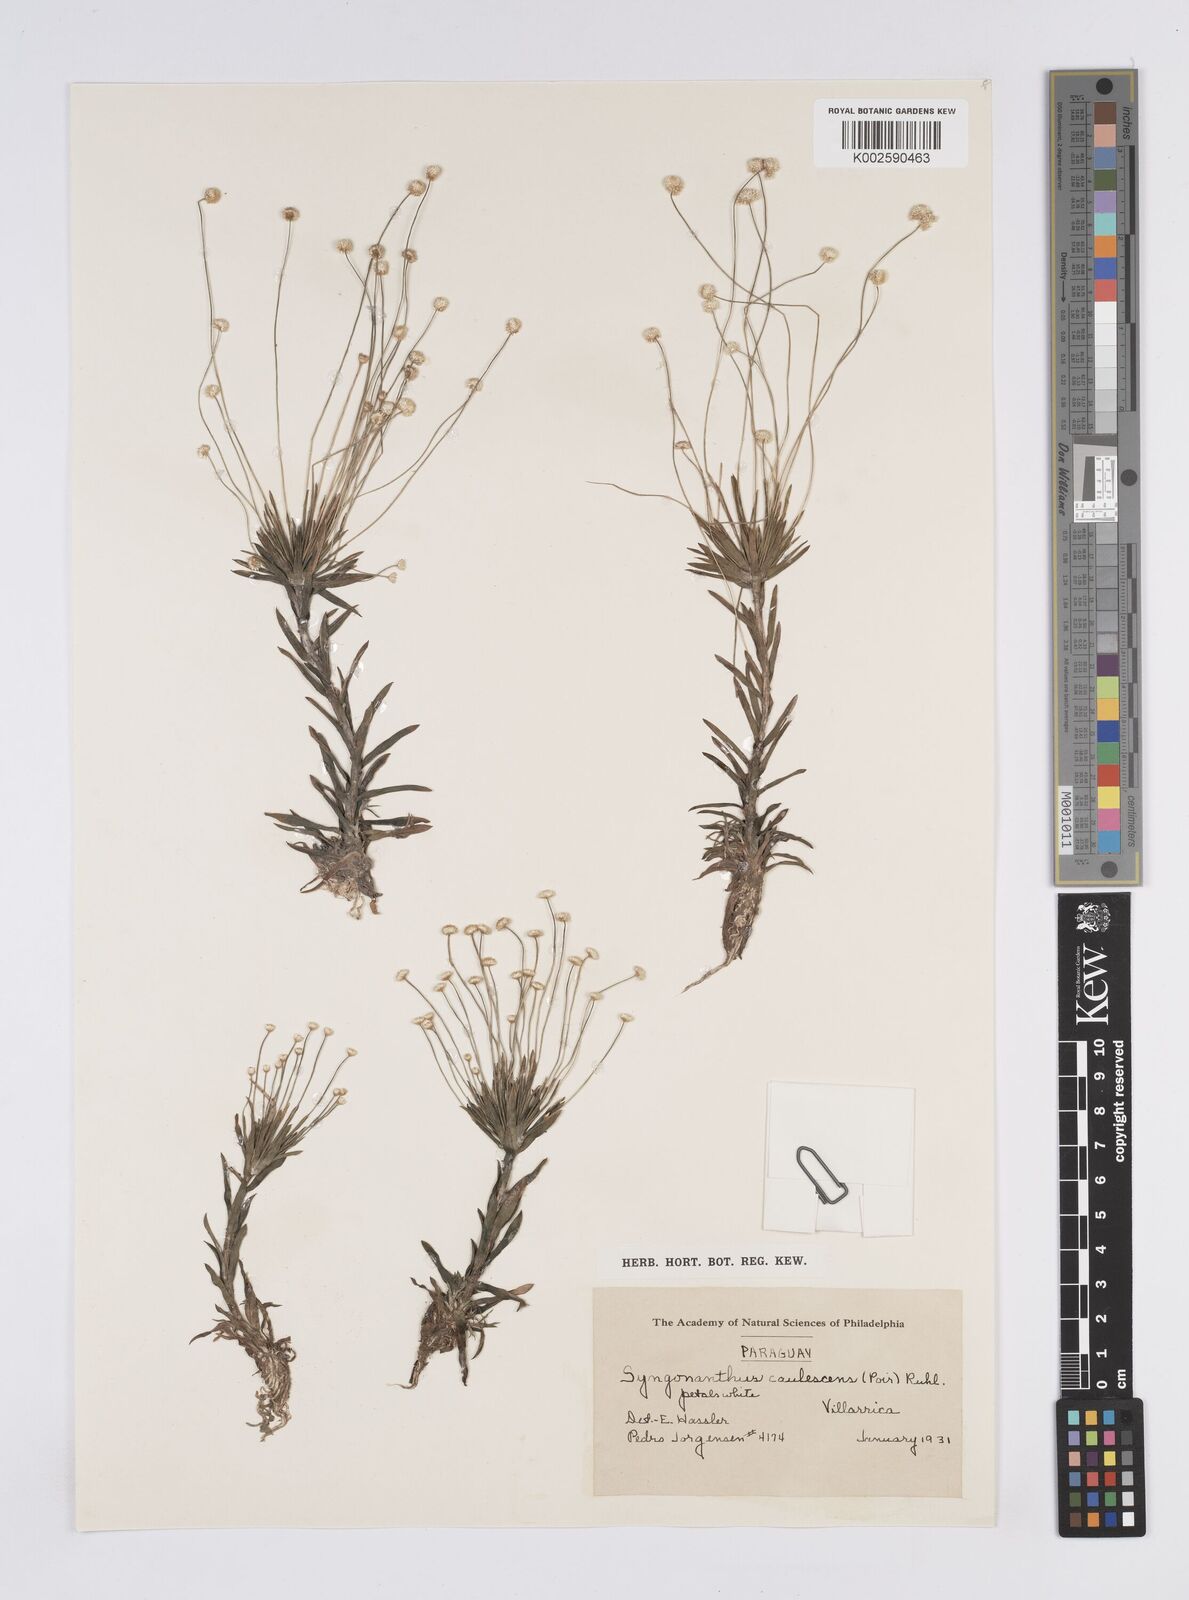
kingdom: Plantae
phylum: Tracheophyta
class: Liliopsida
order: Poales
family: Eriocaulaceae
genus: Syngonanthus
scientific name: Syngonanthus caulescens
